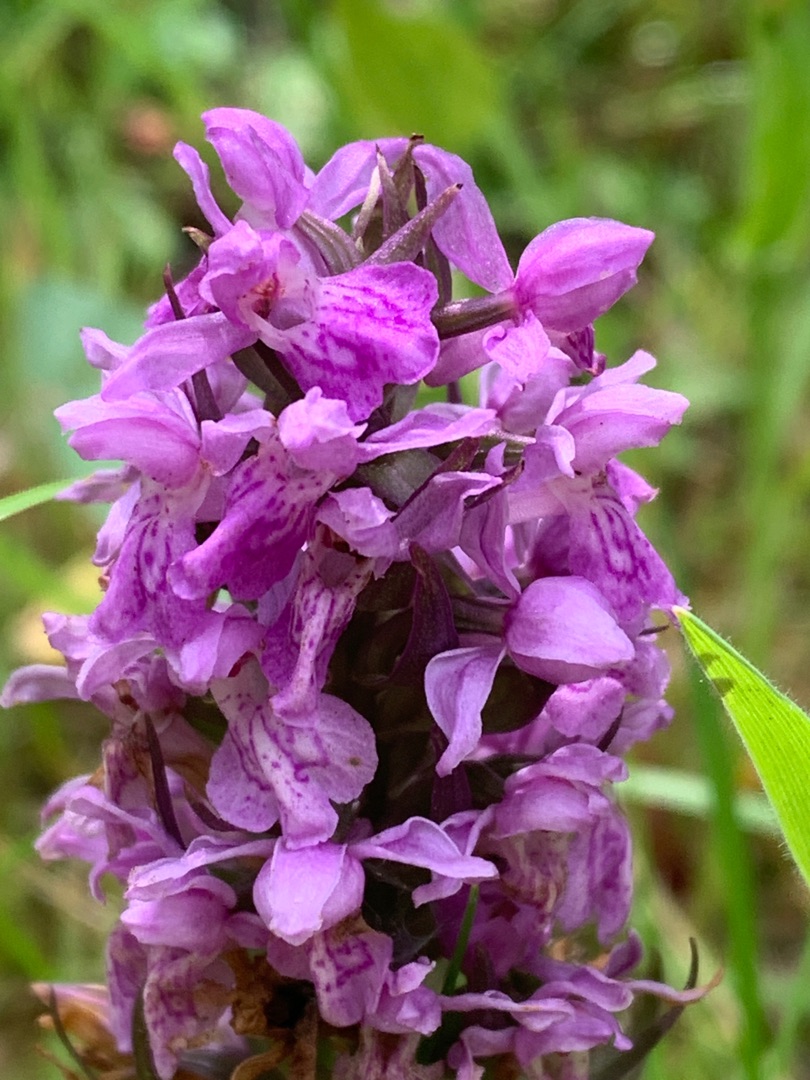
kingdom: Plantae
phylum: Tracheophyta
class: Liliopsida
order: Asparagales
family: Orchidaceae
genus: Dactylorhiza
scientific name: Dactylorhiza majalis
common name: Maj-gøgeurt
